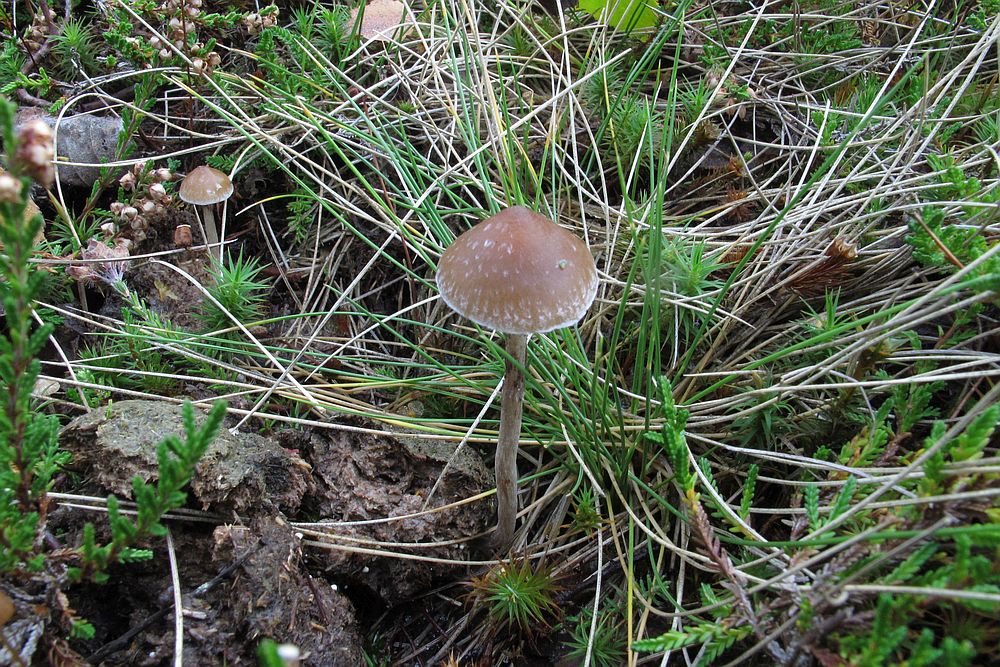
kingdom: Fungi
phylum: Basidiomycota
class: Agaricomycetes
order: Agaricales
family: Hymenogastraceae
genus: Psilocybe
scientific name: Psilocybe subcoprophila
